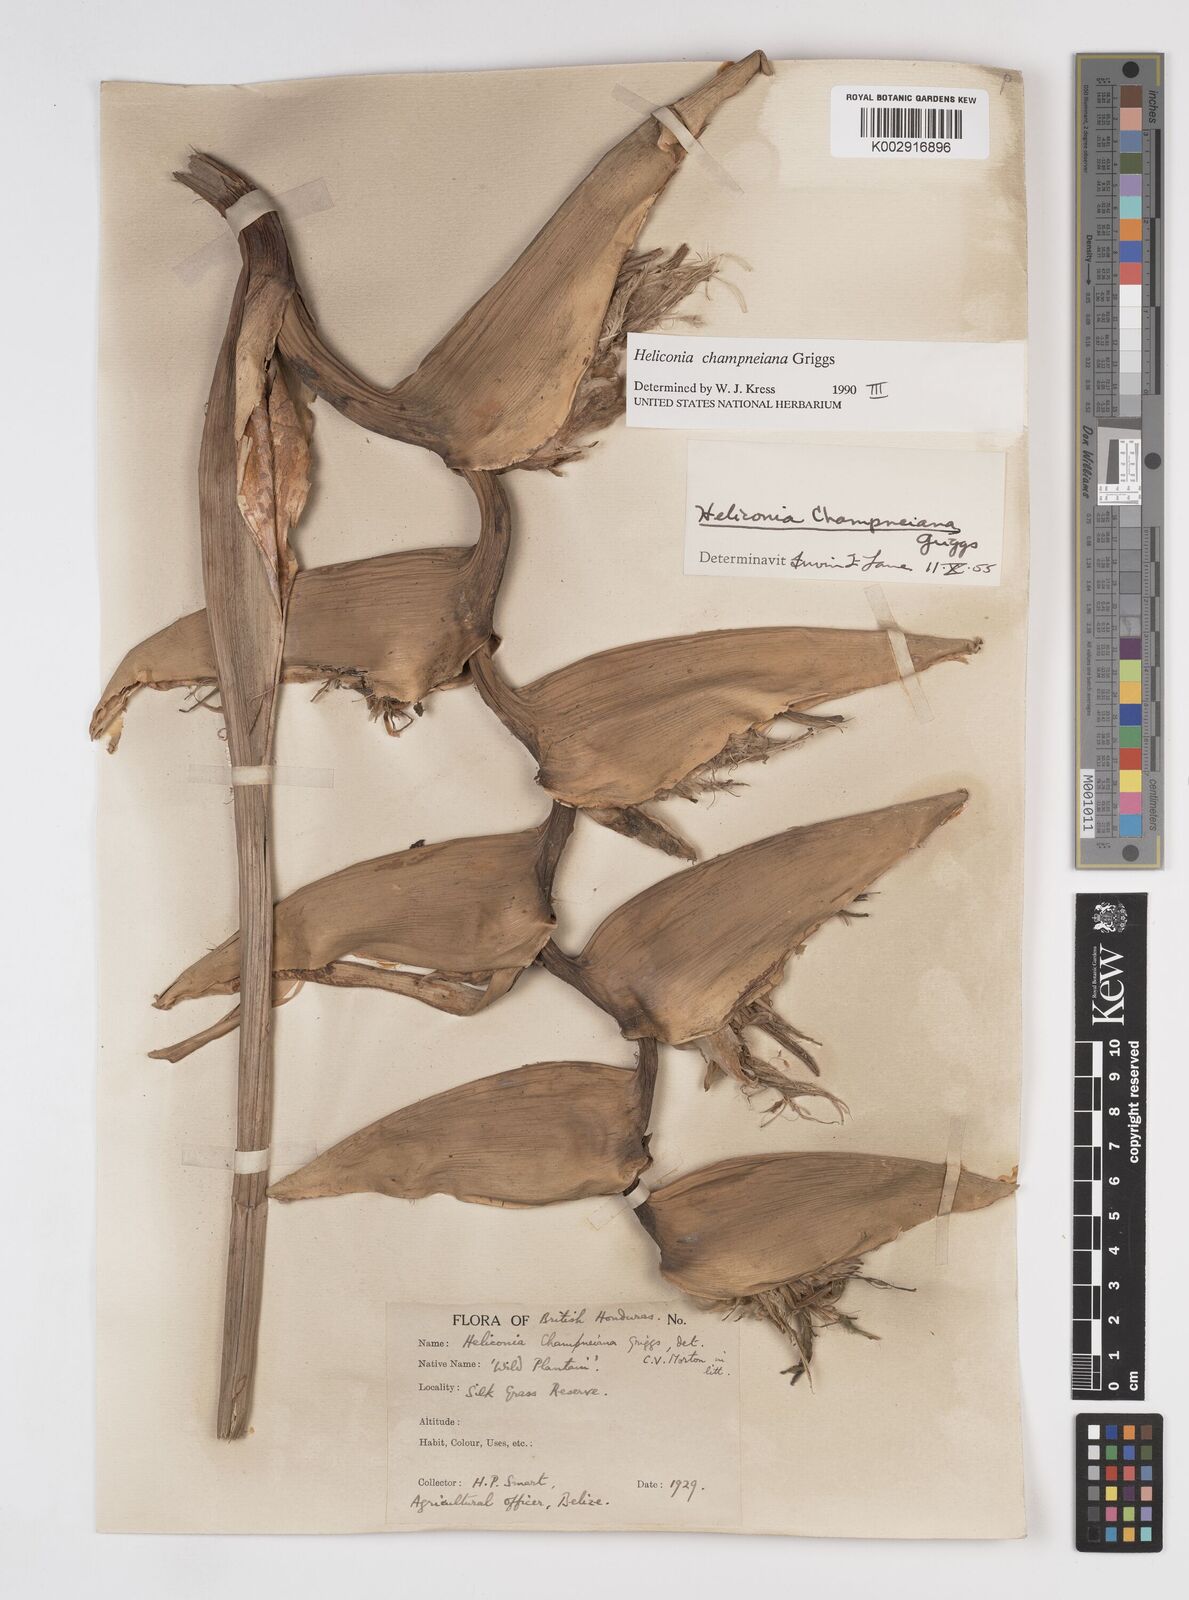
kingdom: Plantae
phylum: Tracheophyta
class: Liliopsida
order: Zingiberales
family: Heliconiaceae
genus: Heliconia
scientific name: Heliconia bourgaeana
